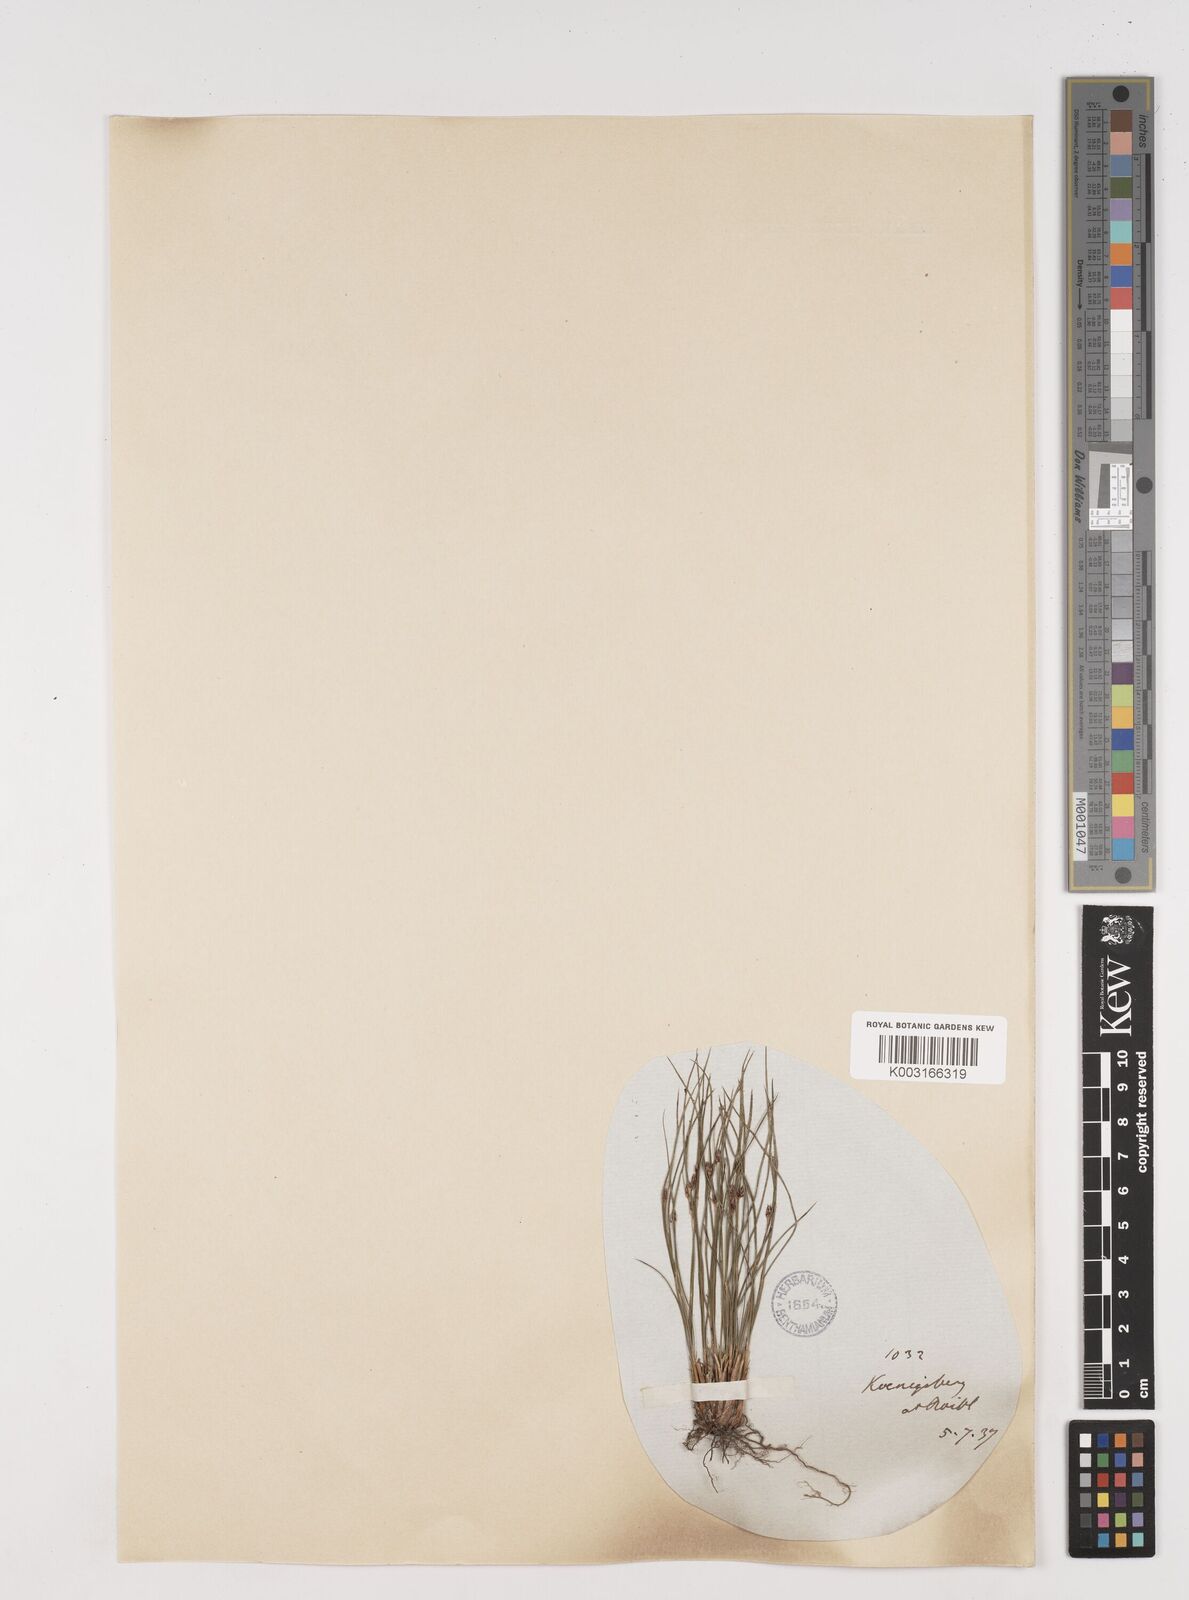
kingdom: Plantae
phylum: Tracheophyta
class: Liliopsida
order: Poales
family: Juncaceae
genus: Oreojuncus
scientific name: Oreojuncus trifidus
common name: Highland rush
